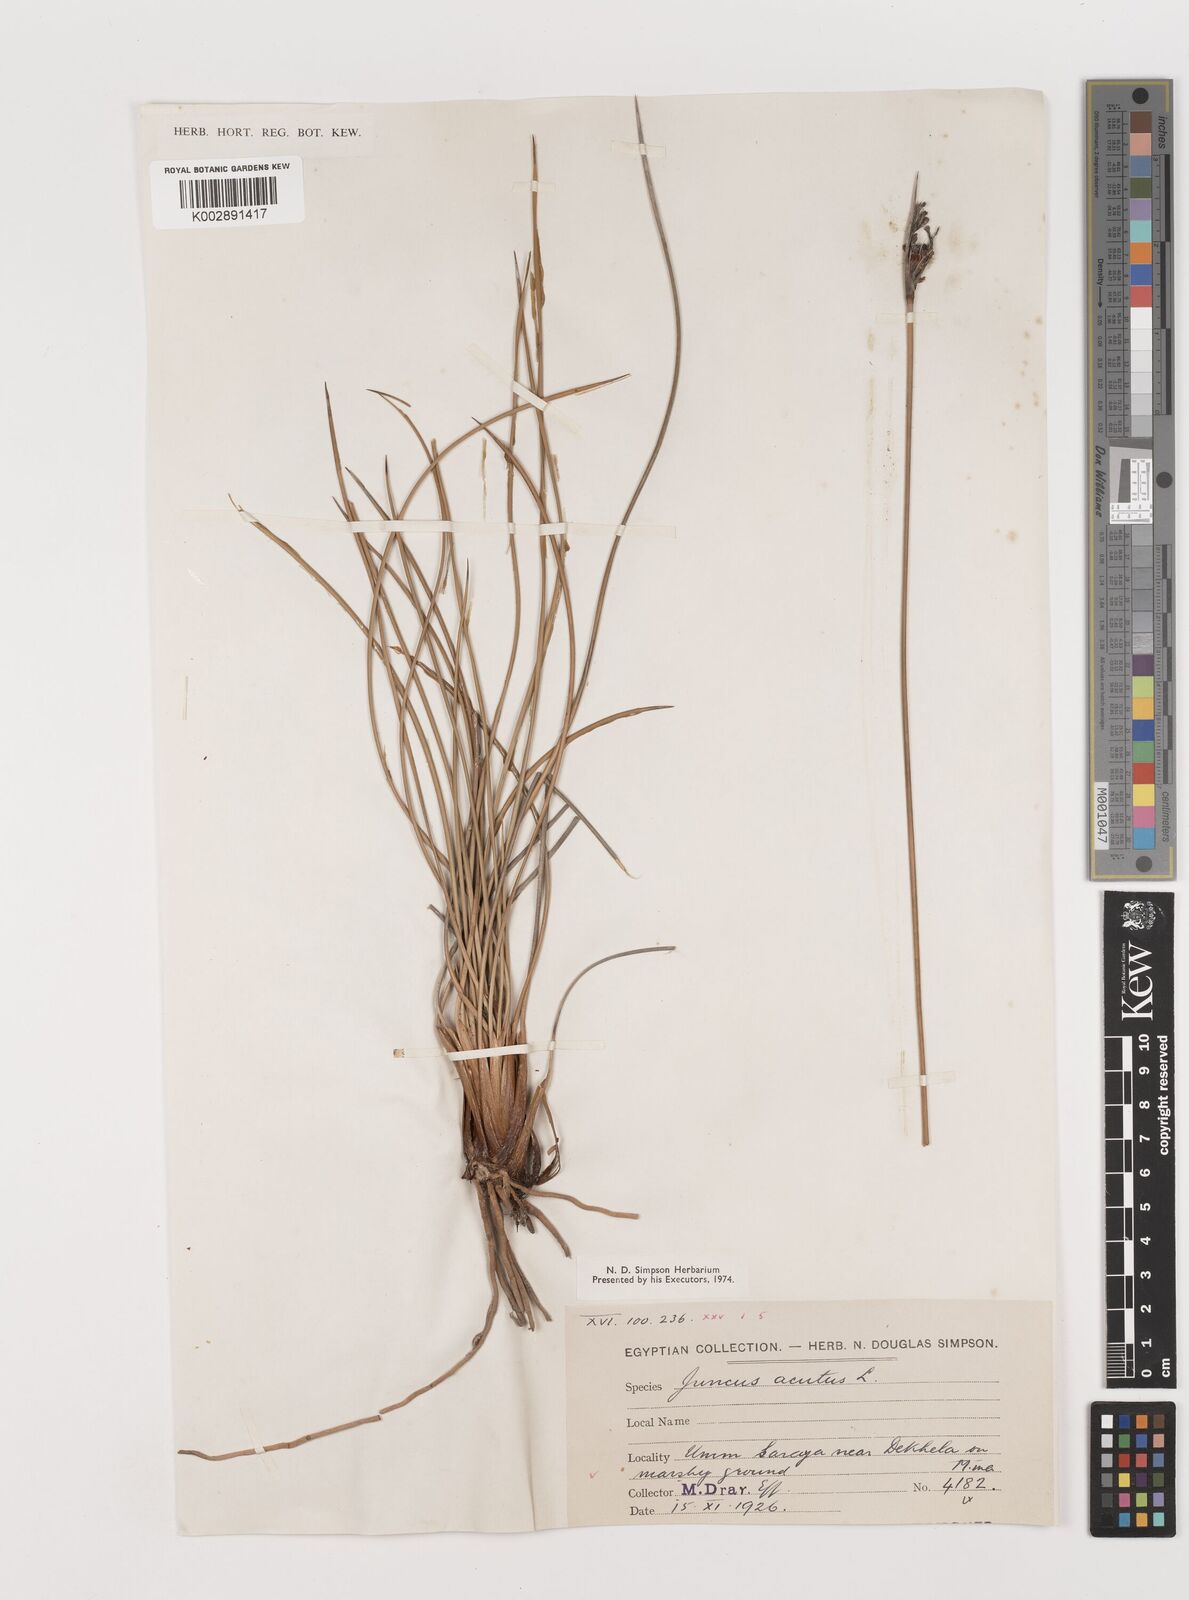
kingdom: Plantae
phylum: Tracheophyta
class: Liliopsida
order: Poales
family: Juncaceae
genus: Juncus
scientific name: Juncus acutus
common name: Sharp rush
